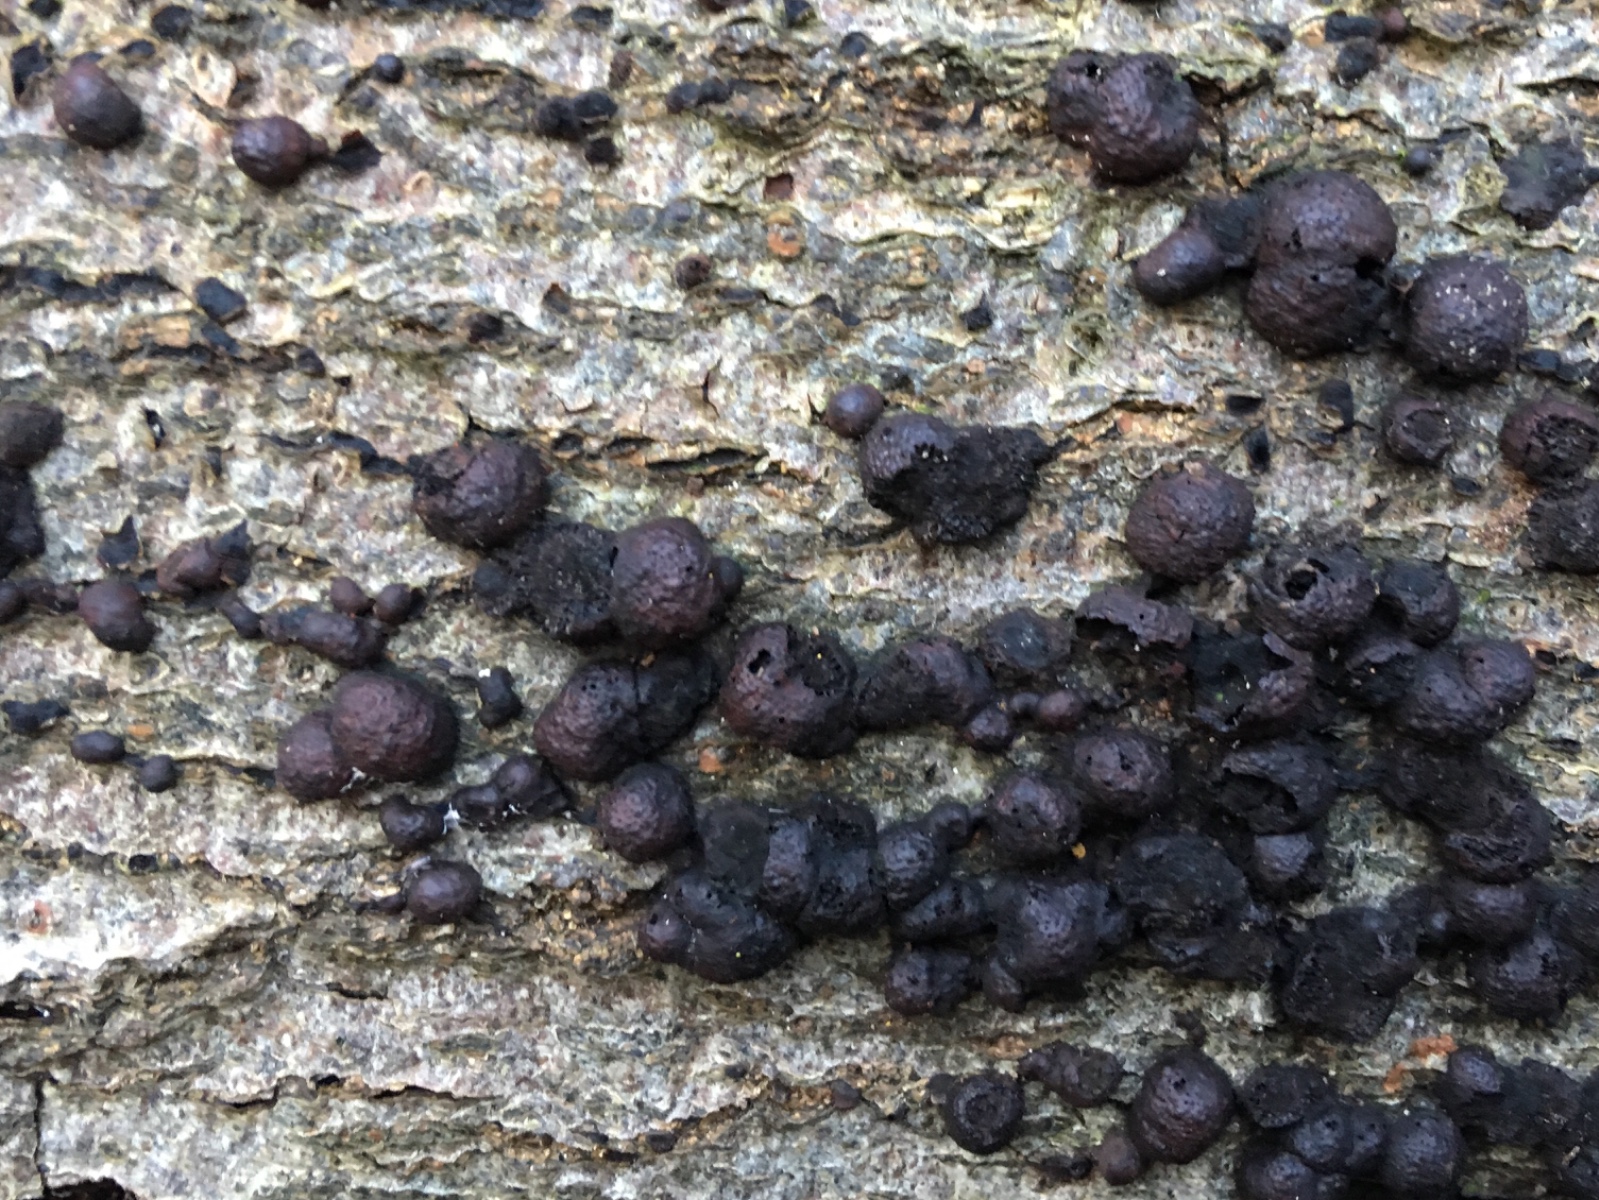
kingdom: Fungi
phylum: Ascomycota
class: Sordariomycetes
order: Xylariales
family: Hypoxylaceae
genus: Hypoxylon
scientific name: Hypoxylon fragiforme
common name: kuljordbær
